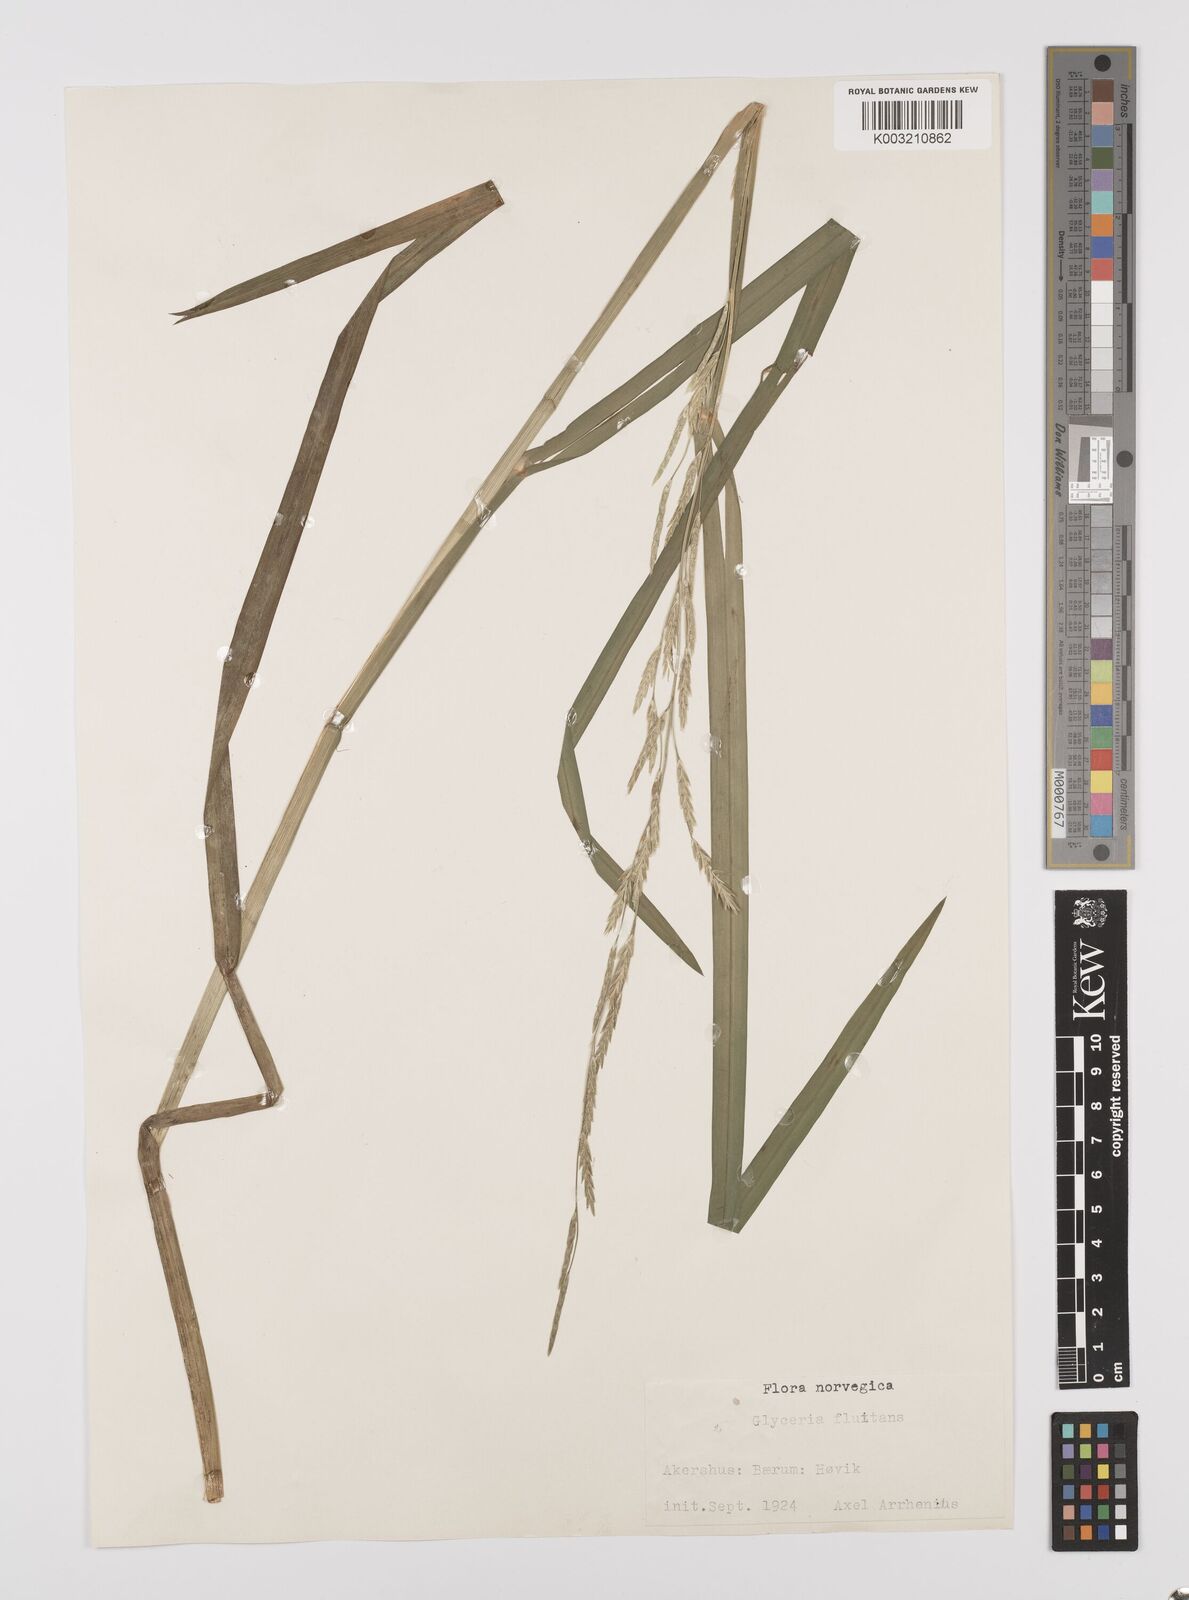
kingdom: Plantae
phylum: Tracheophyta
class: Liliopsida
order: Poales
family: Poaceae
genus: Glyceria
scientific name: Glyceria fluitans
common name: Floating sweet-grass
